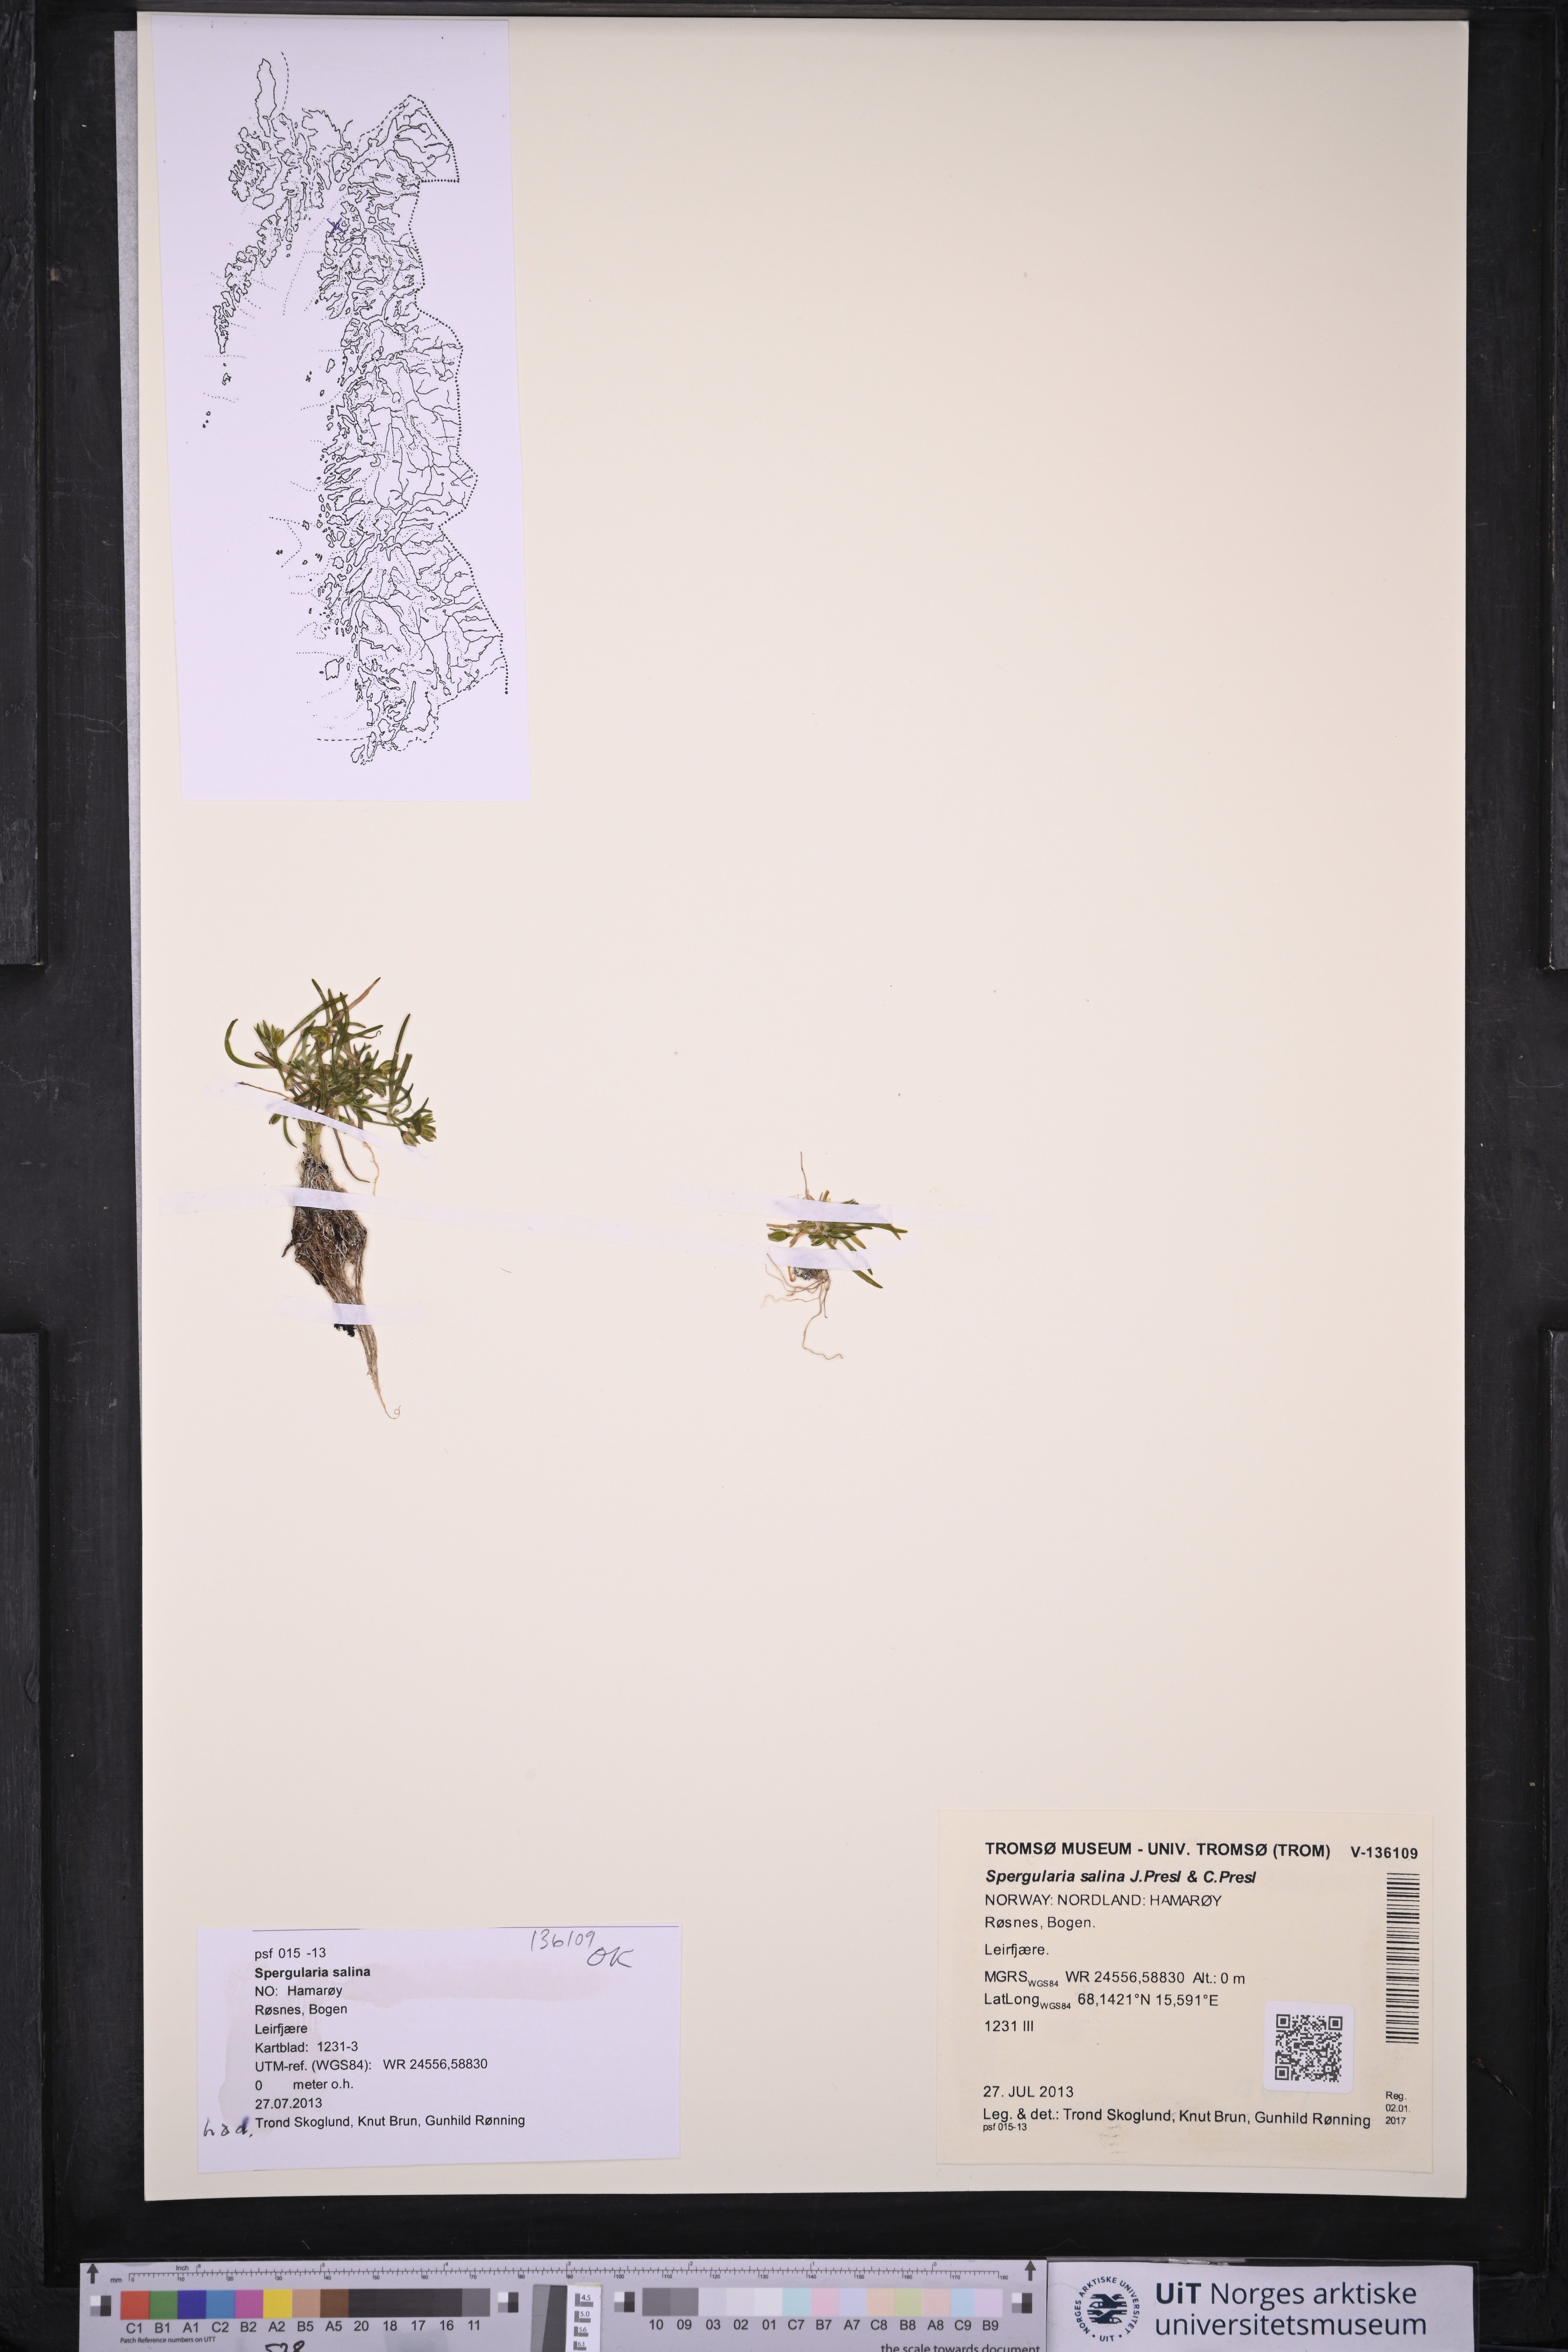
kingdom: Plantae
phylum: Tracheophyta
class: Magnoliopsida
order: Caryophyllales
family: Caryophyllaceae
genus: Spergularia
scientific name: Spergularia marina
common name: Lesser sea-spurrey
